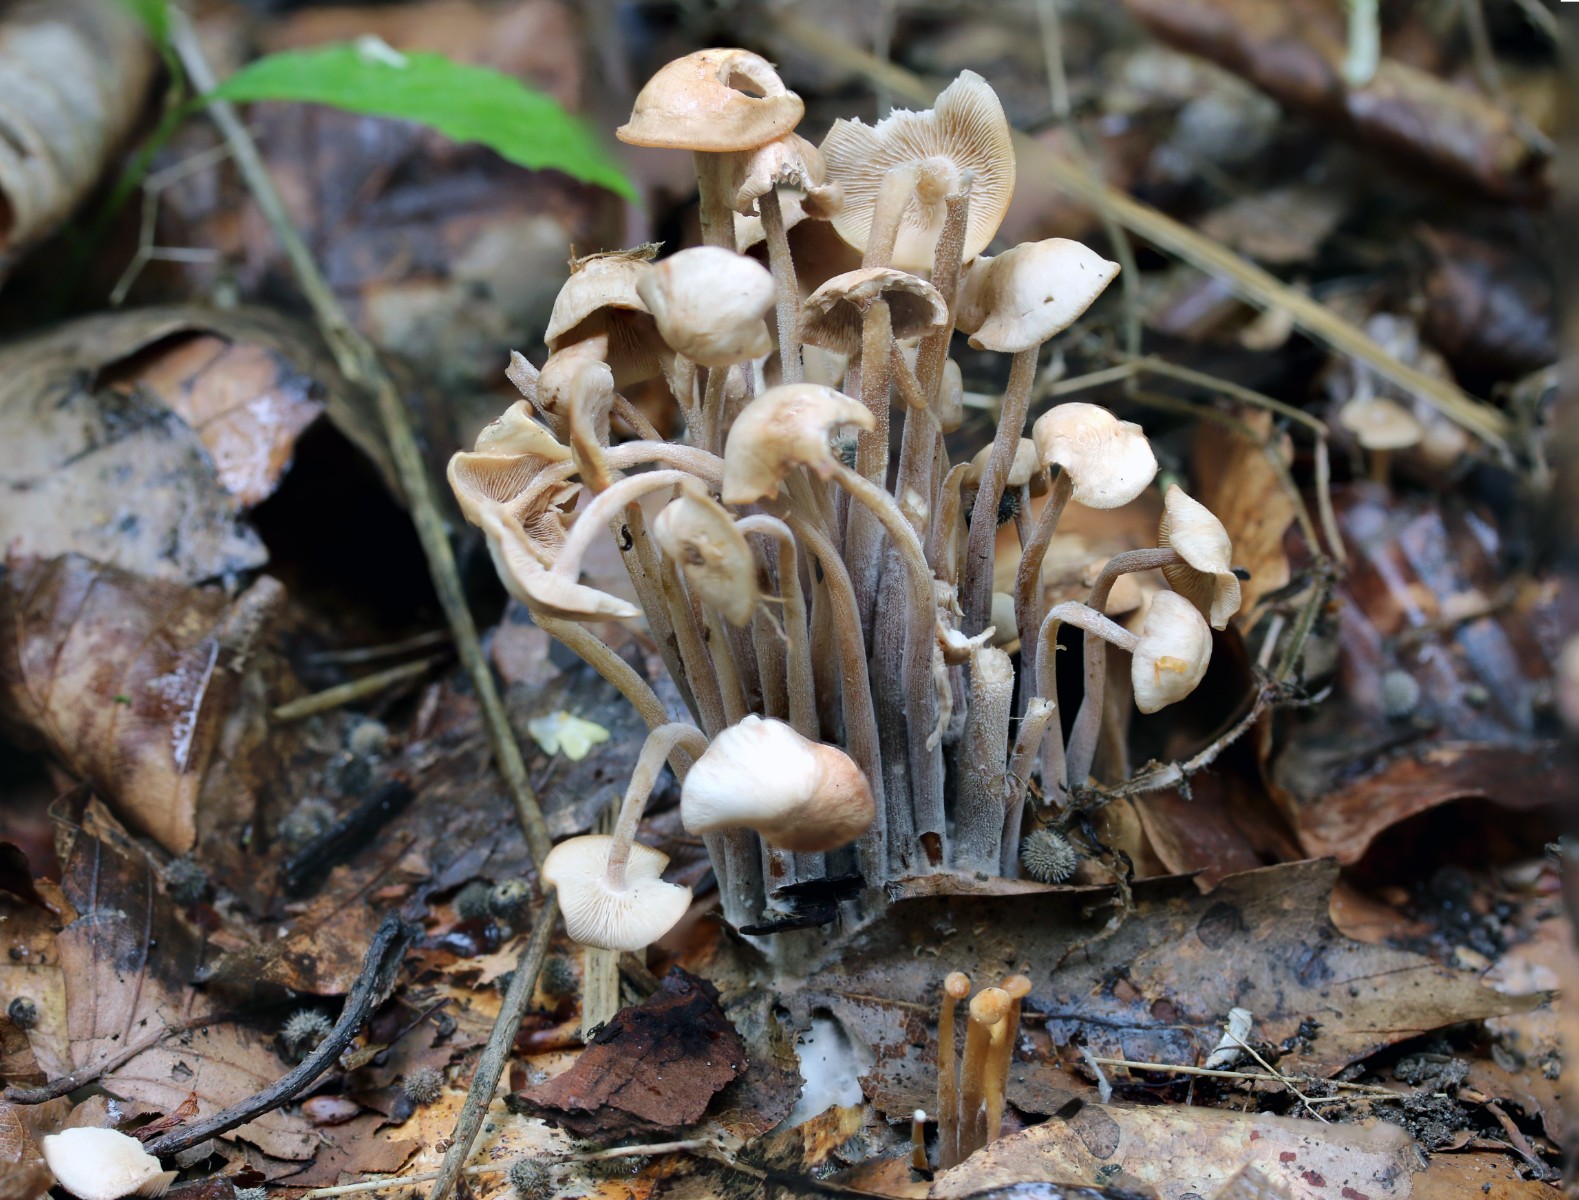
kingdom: Fungi
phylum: Basidiomycota
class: Agaricomycetes
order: Agaricales
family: Omphalotaceae
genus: Collybiopsis
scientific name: Collybiopsis confluens
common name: knippe-fladhat
